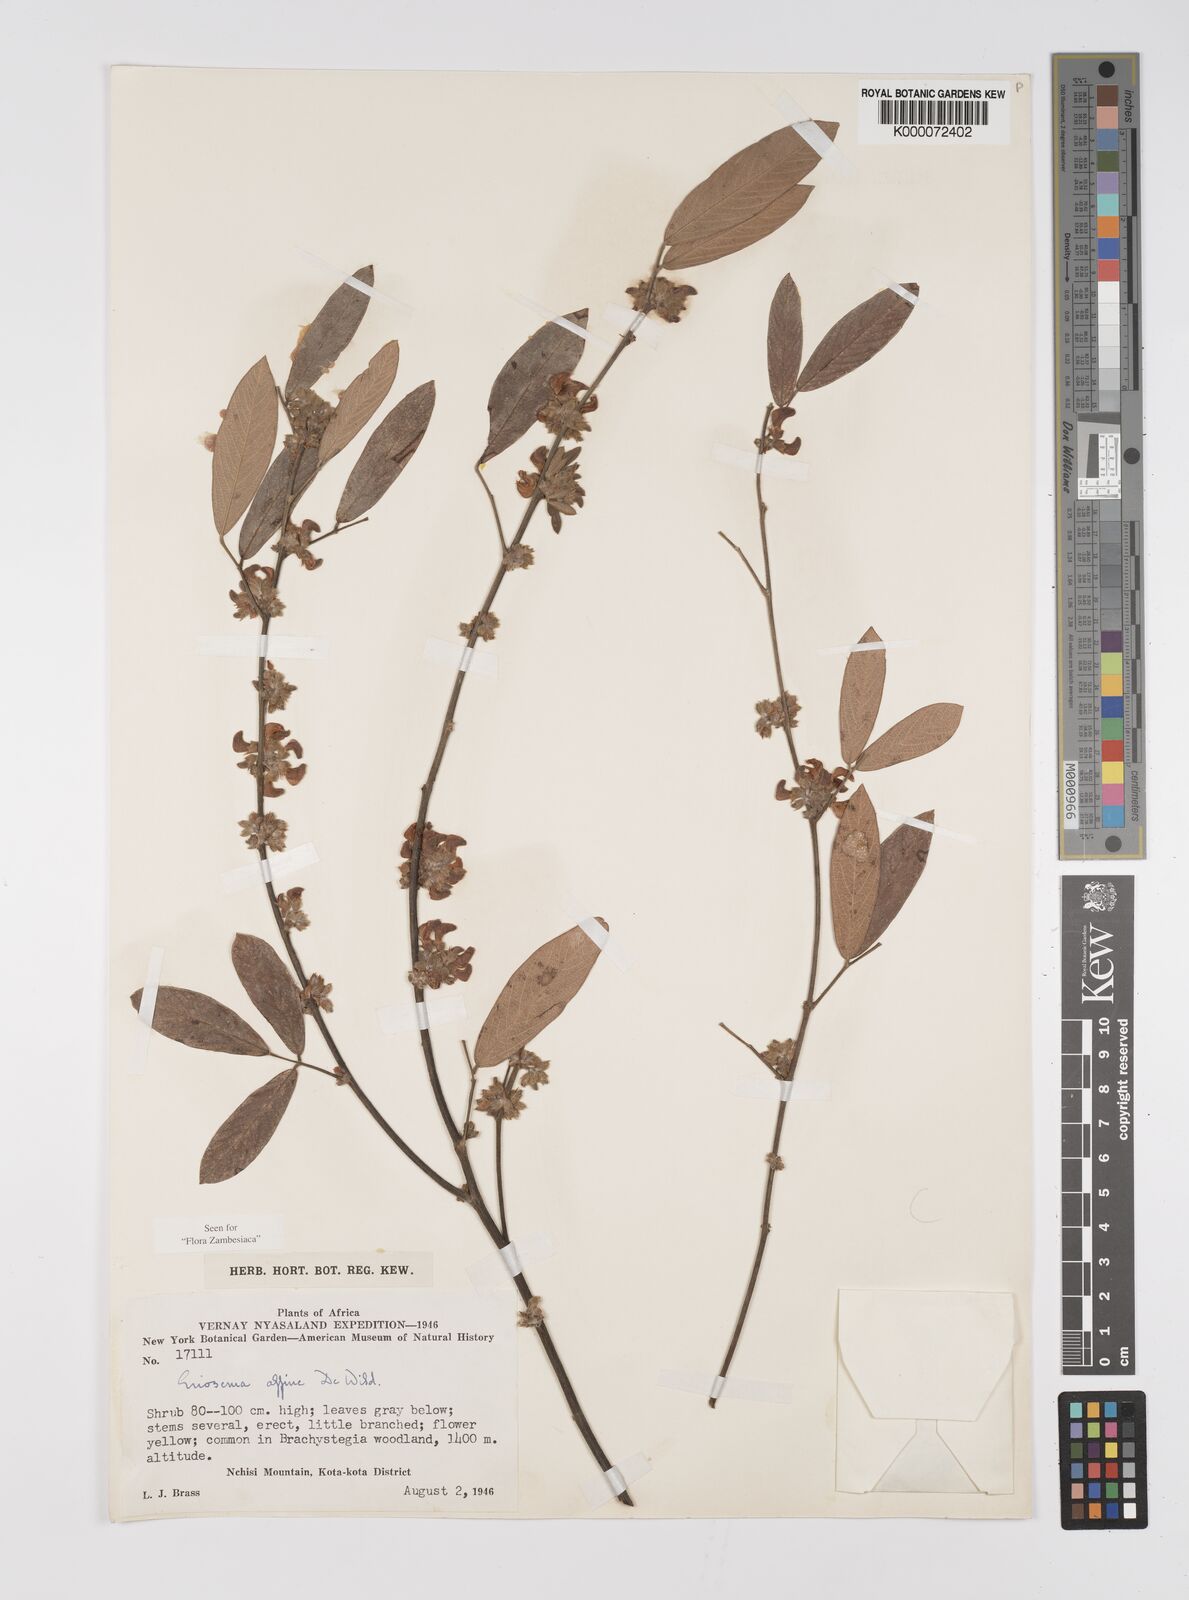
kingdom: Plantae
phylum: Tracheophyta
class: Magnoliopsida
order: Fabales
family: Fabaceae
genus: Eriosema
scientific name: Eriosema affine
